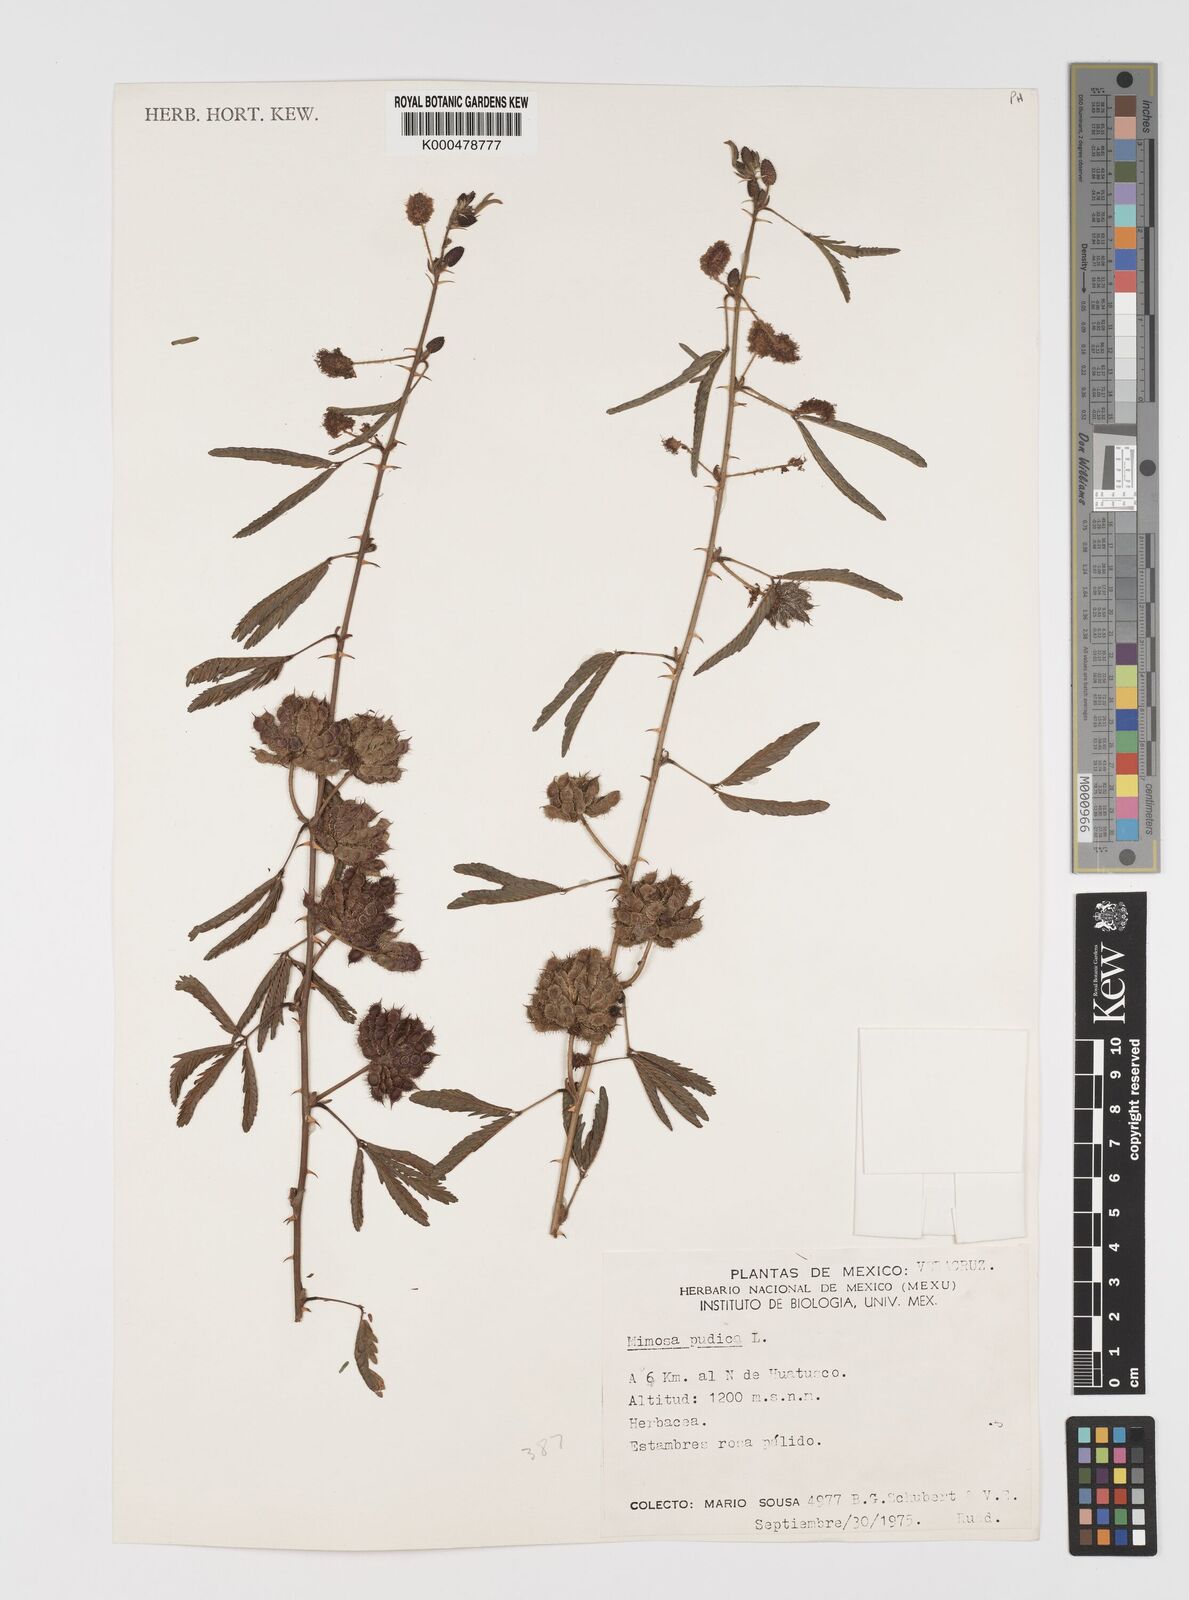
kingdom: Plantae
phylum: Tracheophyta
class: Magnoliopsida
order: Fabales
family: Fabaceae
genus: Mimosa
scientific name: Mimosa pudica
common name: Sensitive plant
